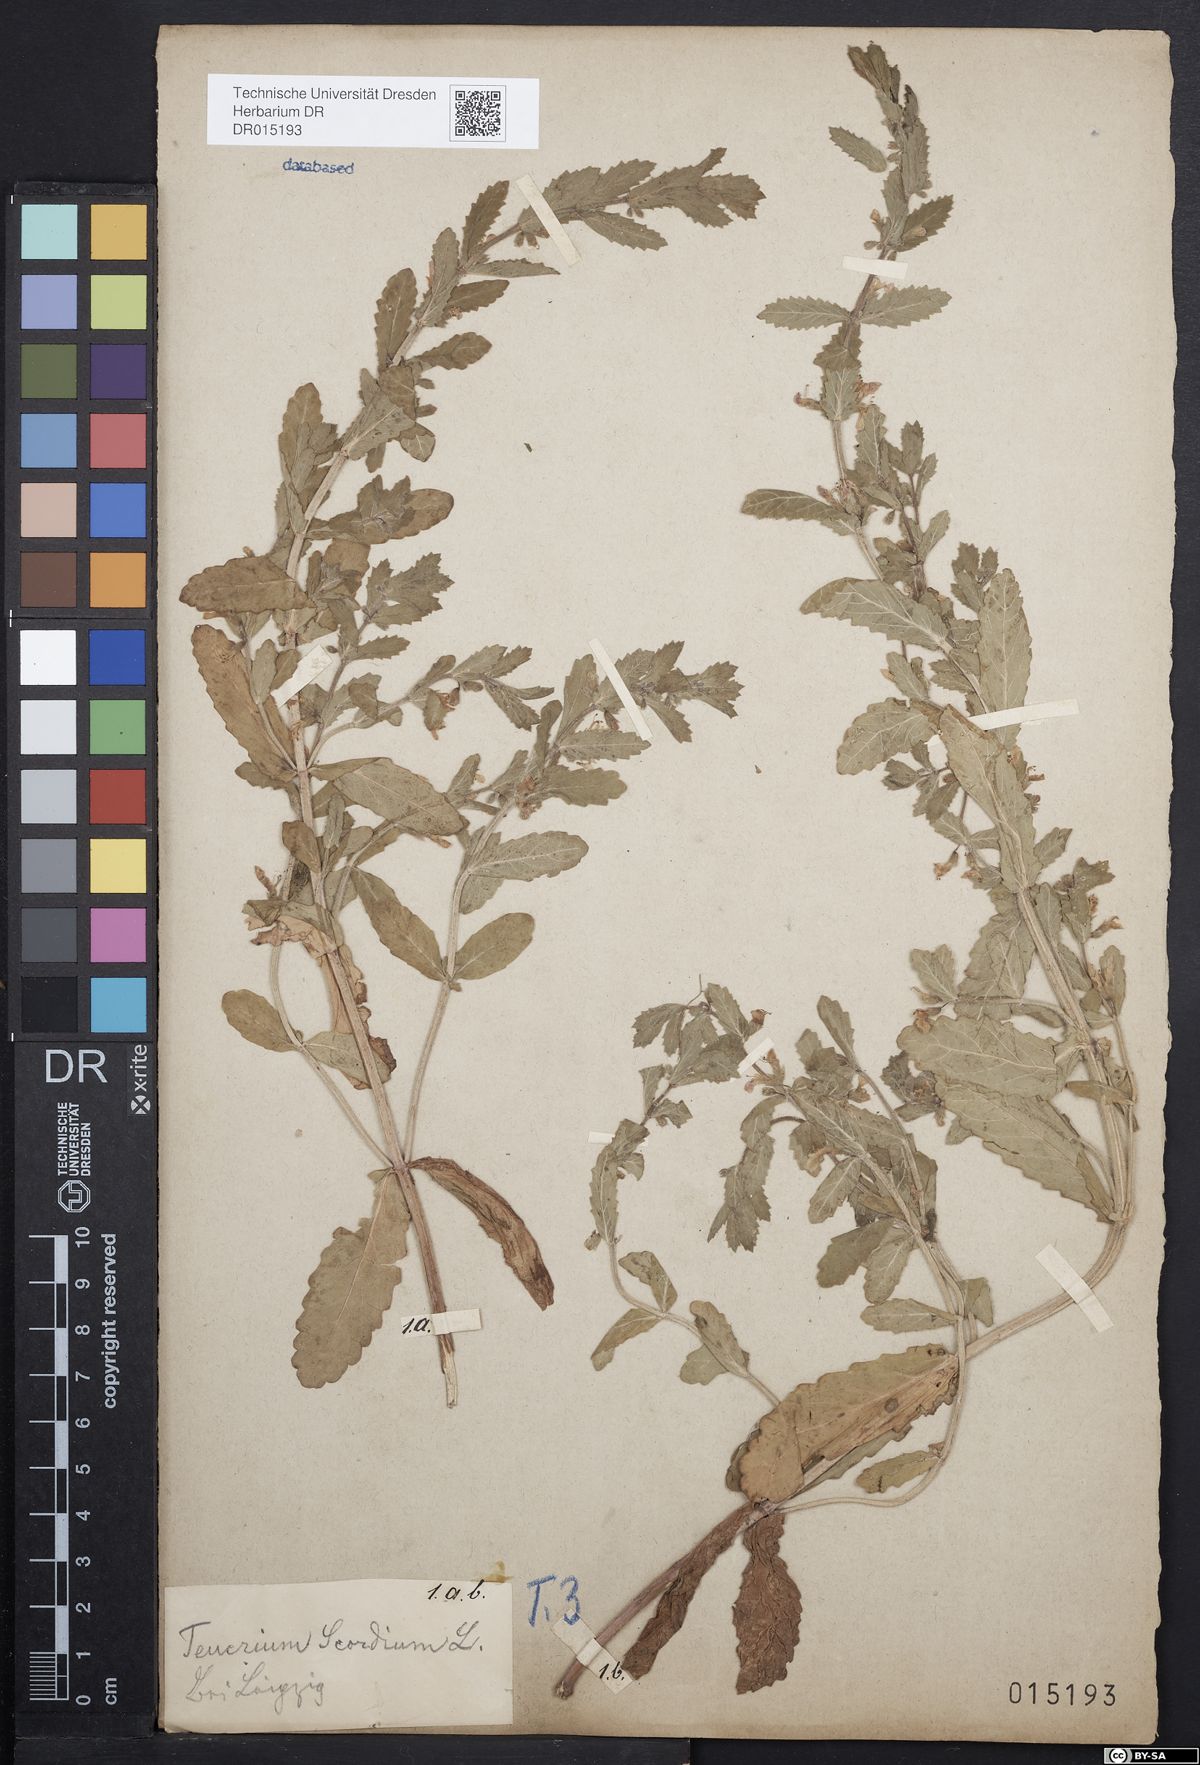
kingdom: Plantae
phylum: Tracheophyta
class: Magnoliopsida
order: Lamiales
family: Lamiaceae
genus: Teucrium
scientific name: Teucrium scordium
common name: Water germander
